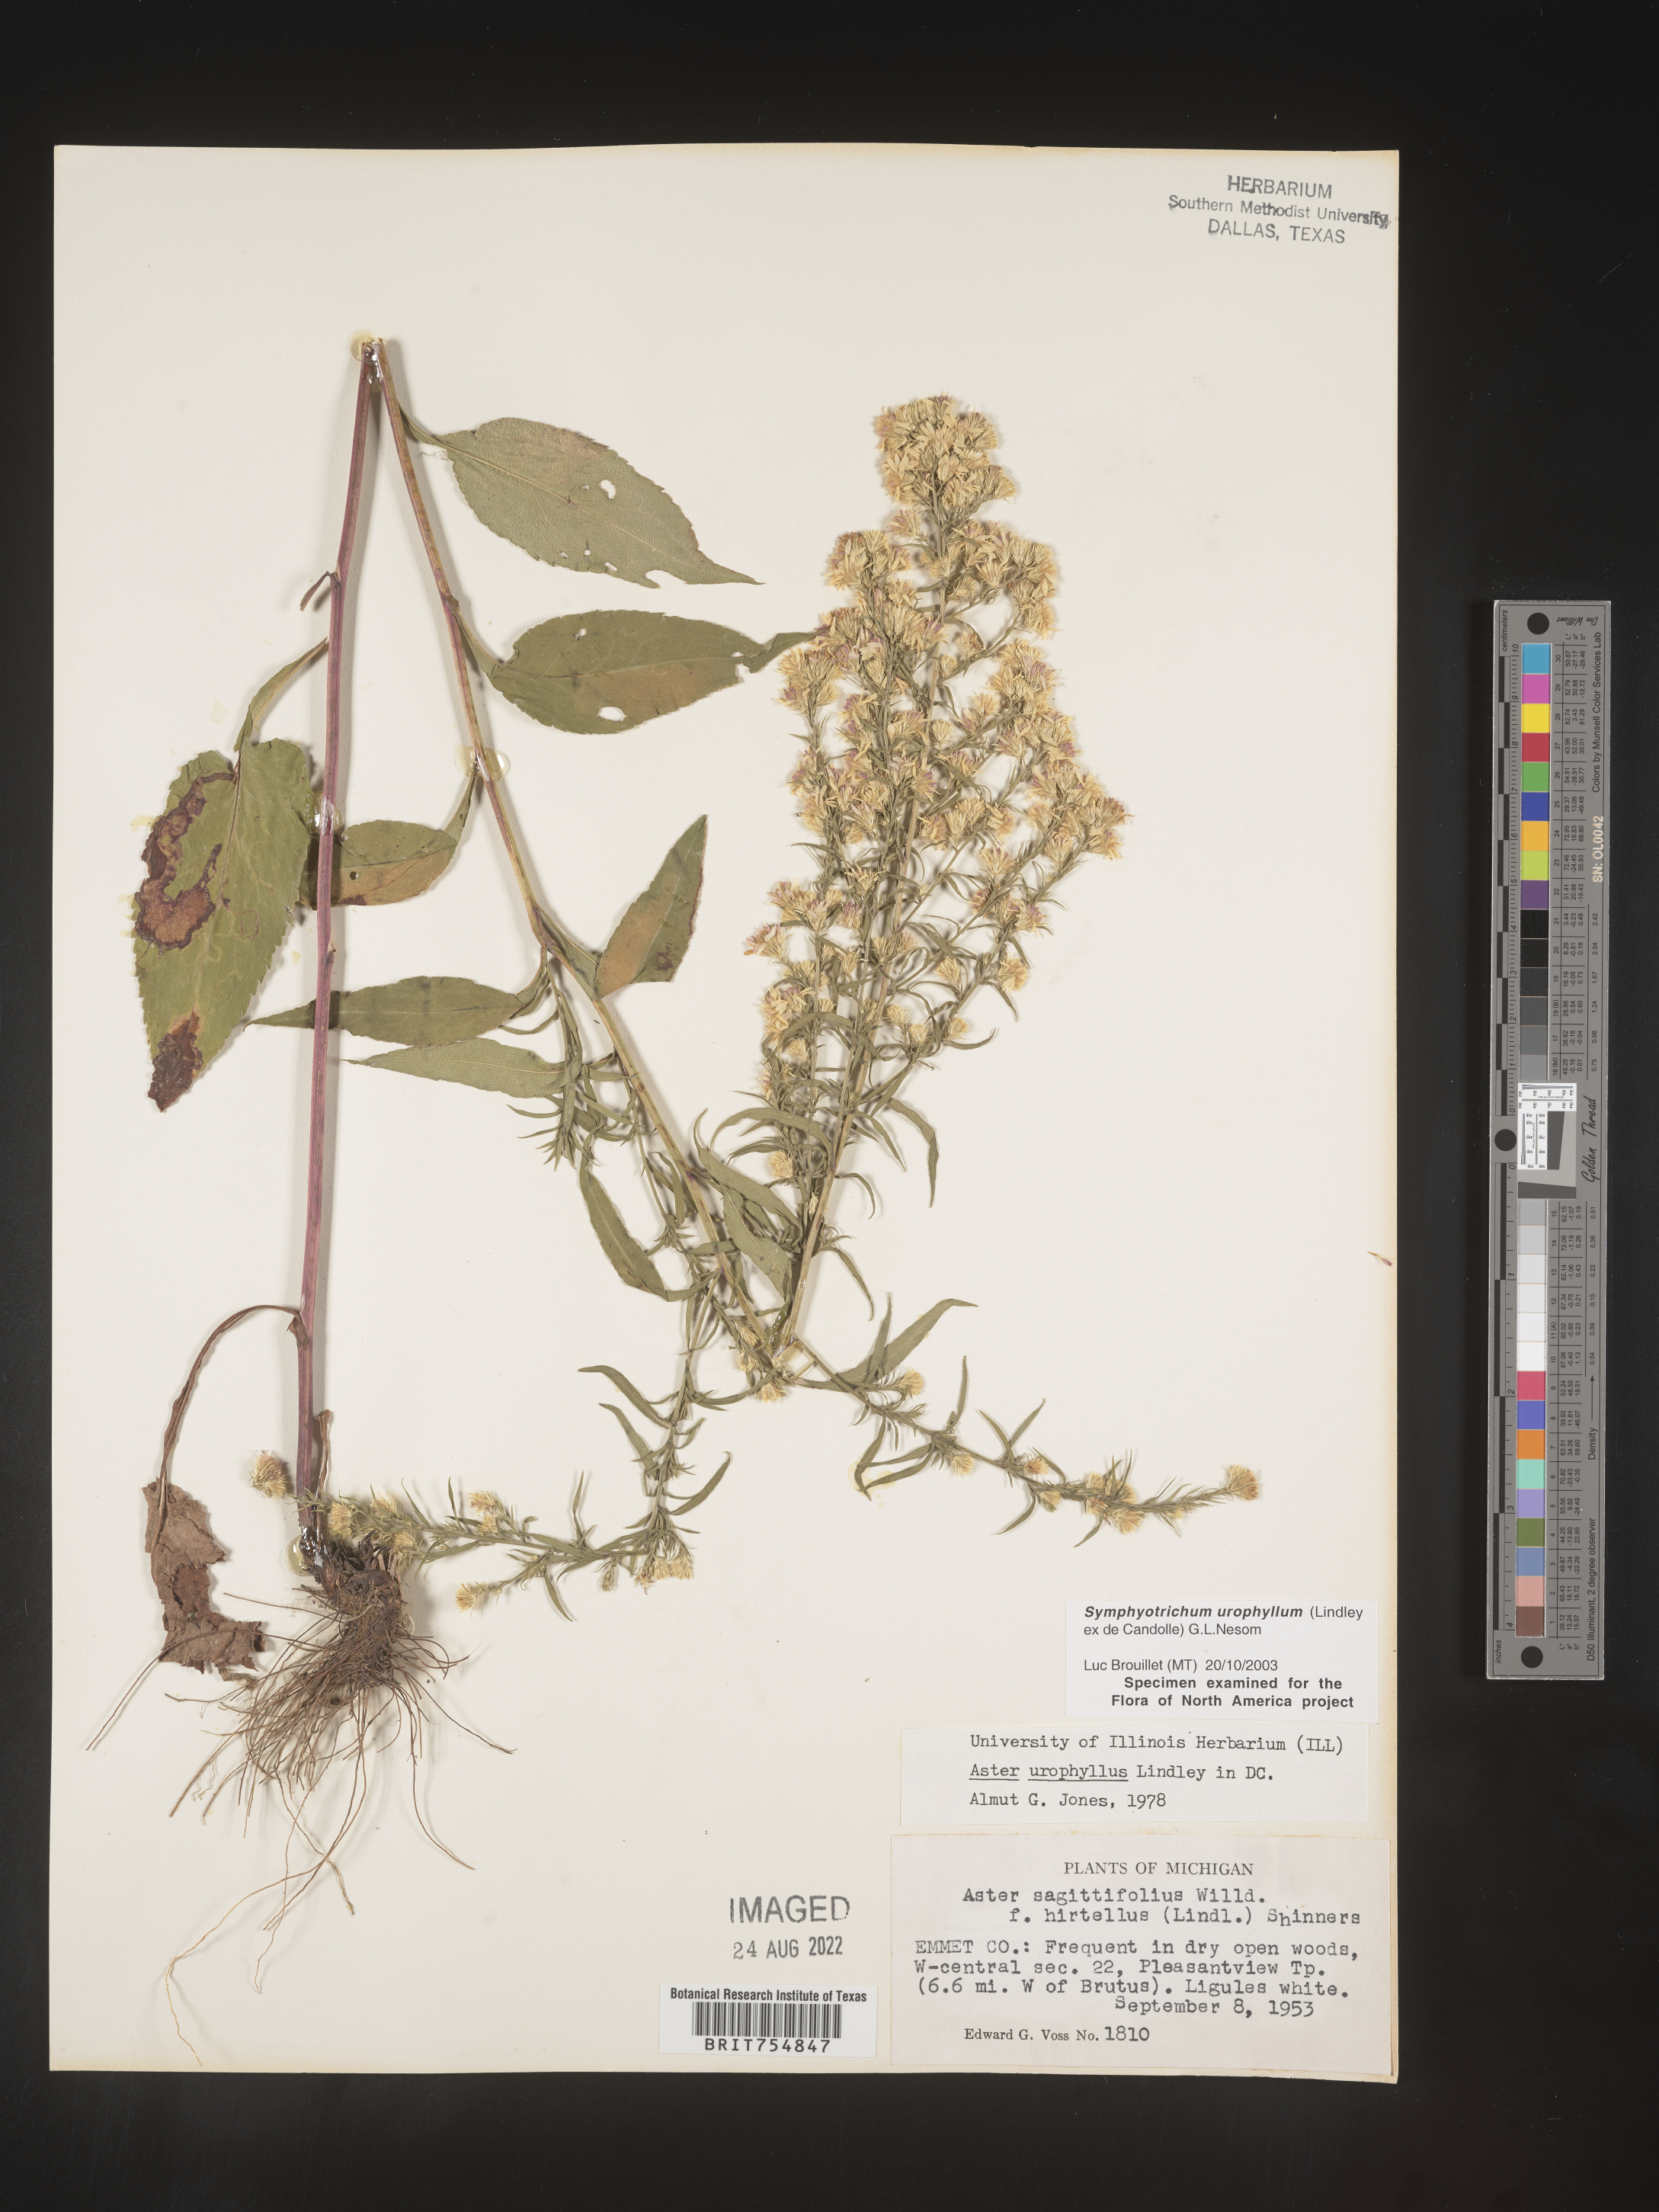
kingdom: Plantae
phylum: Tracheophyta
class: Magnoliopsida
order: Asterales
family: Asteraceae
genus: Symphyotrichum
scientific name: Symphyotrichum urophyllum
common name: Arrow-leaved aster
